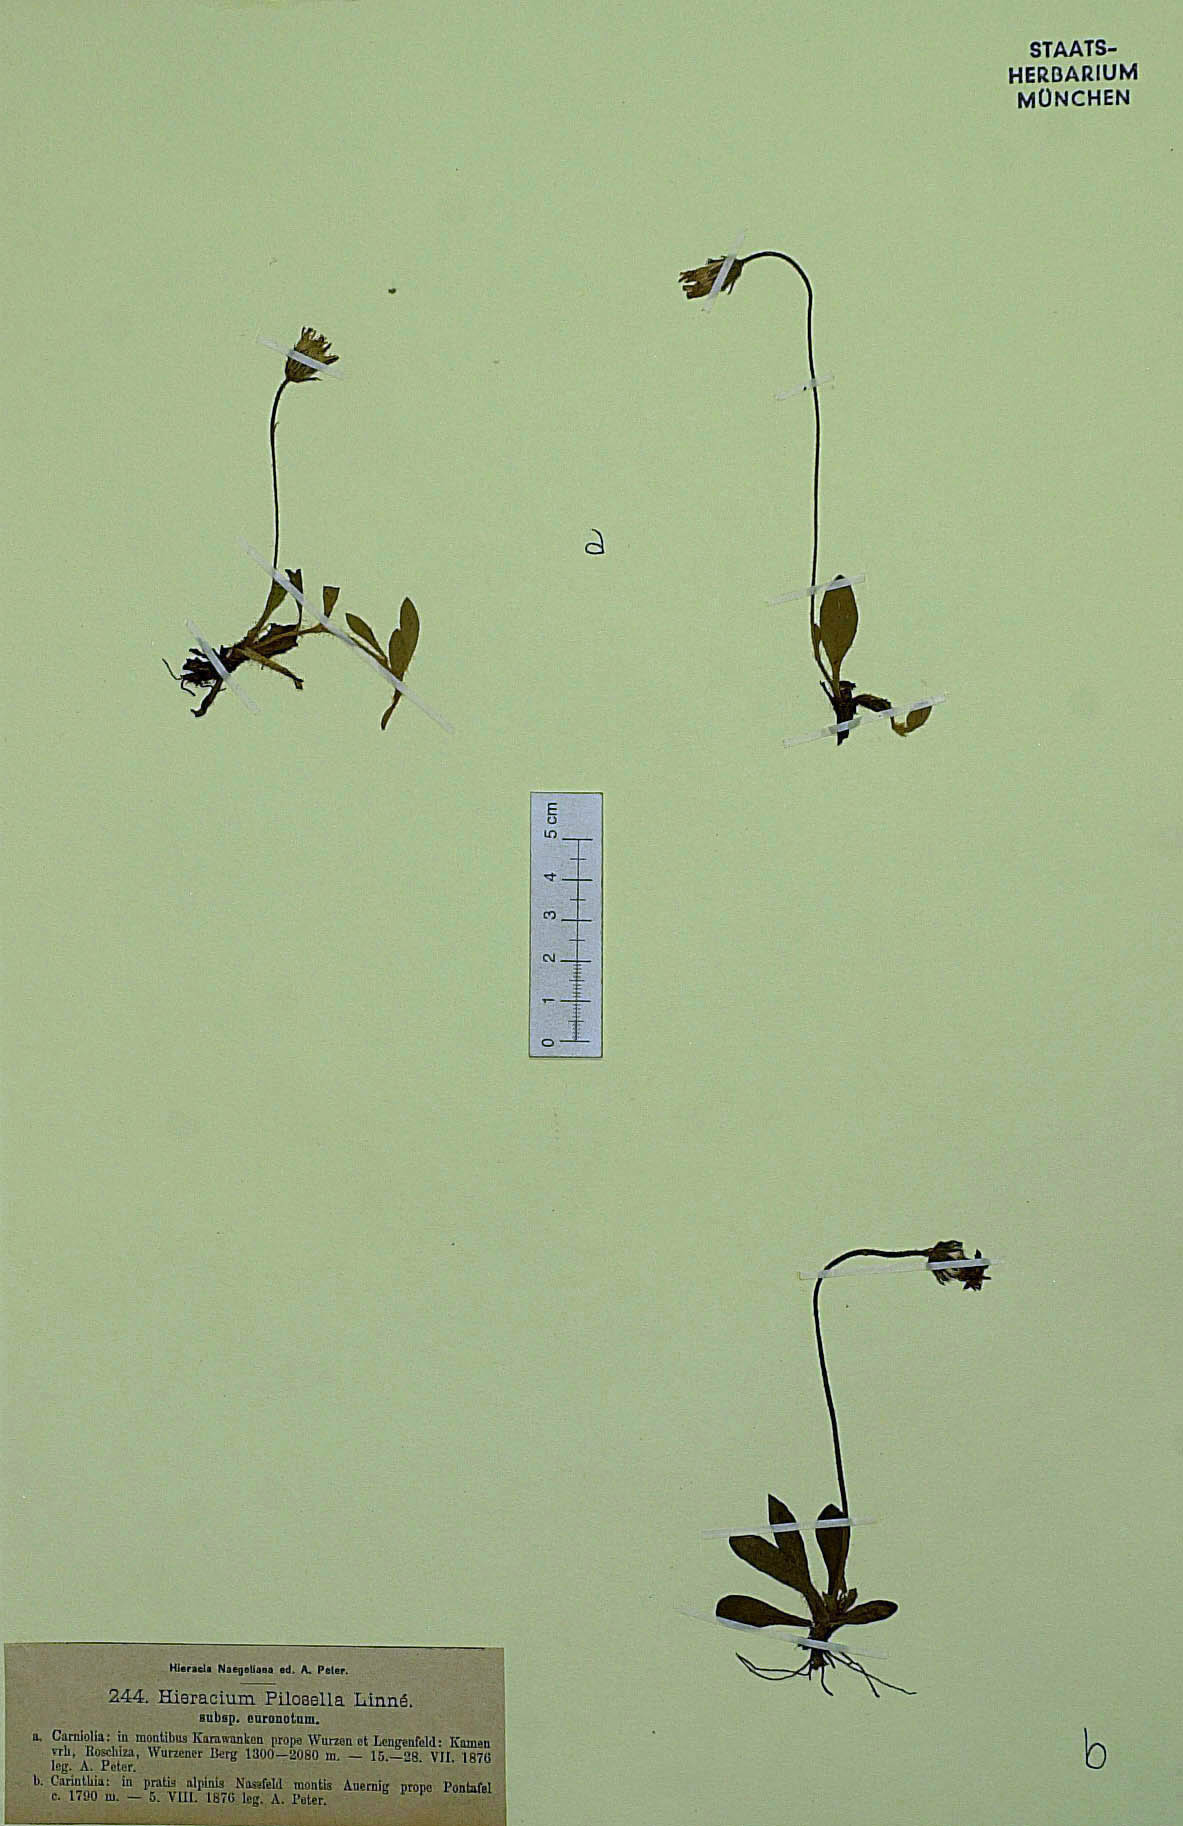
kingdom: Plantae
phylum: Tracheophyta
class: Magnoliopsida
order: Asterales
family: Asteraceae
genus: Pilosella
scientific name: Pilosella officinarum
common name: Mouse-ear hawkweed
